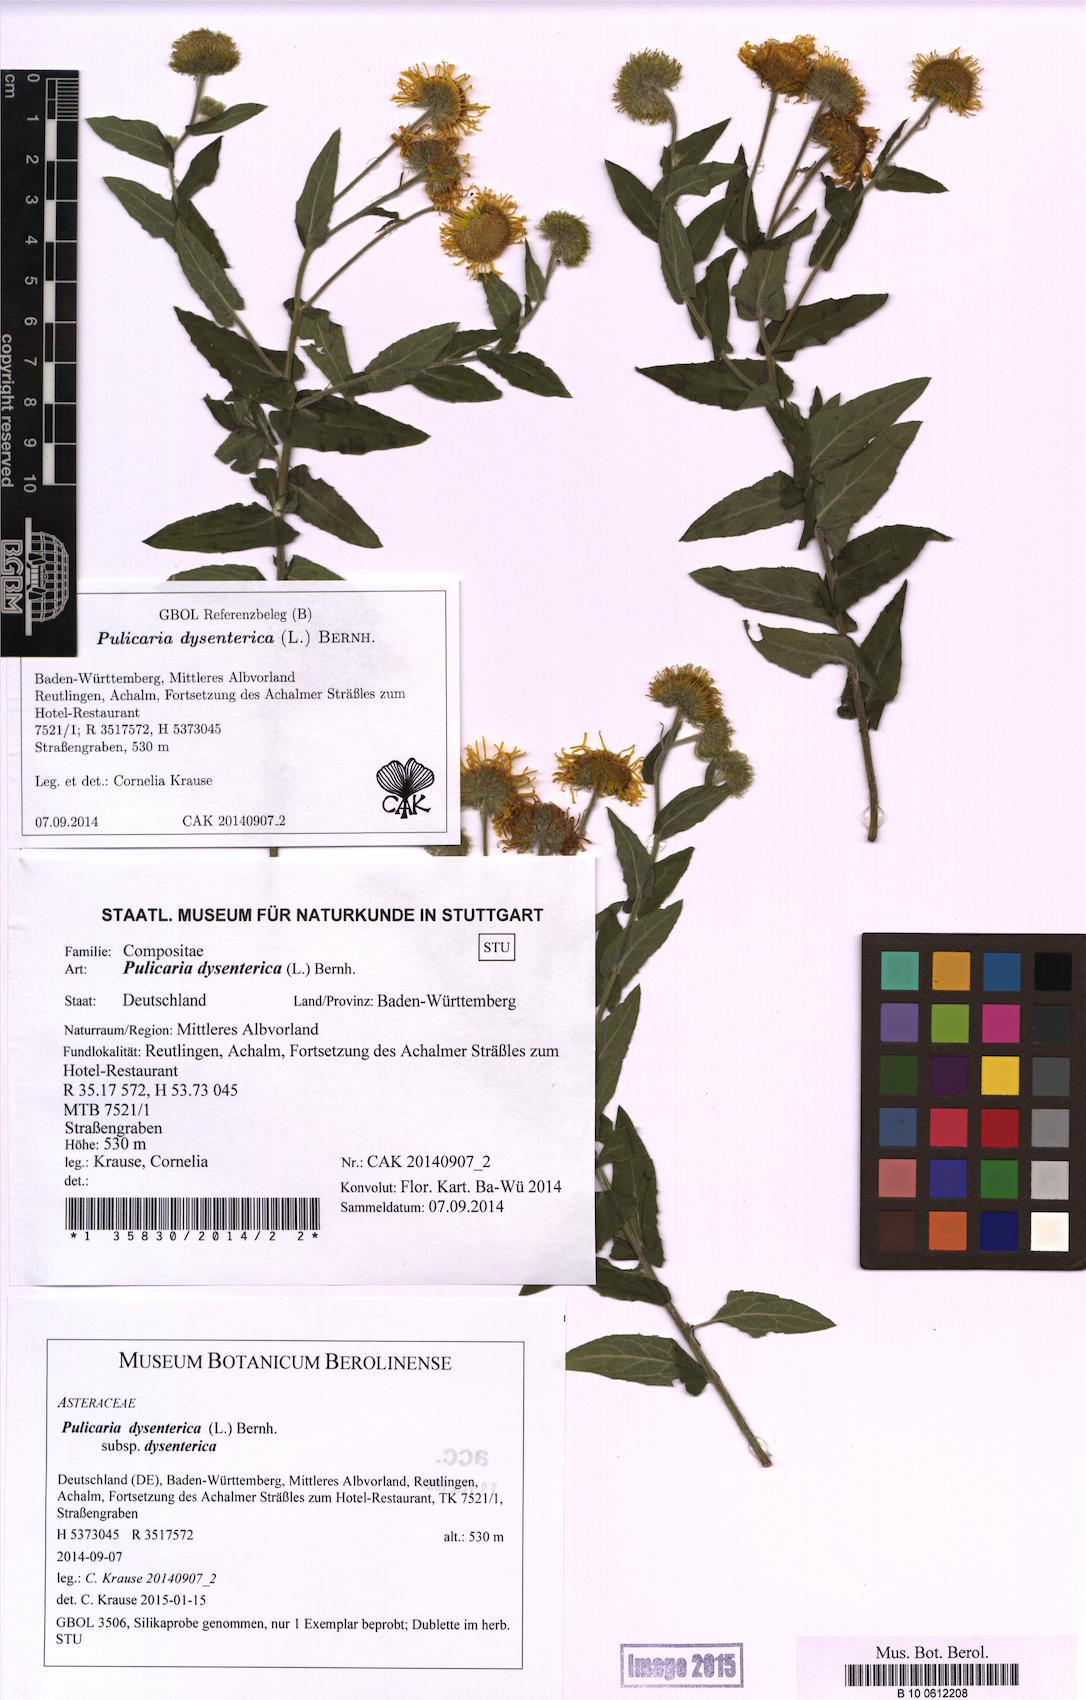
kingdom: Plantae
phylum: Tracheophyta
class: Magnoliopsida
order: Asterales
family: Asteraceae
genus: Pulicaria
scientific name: Pulicaria dysenterica
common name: Common fleabane
